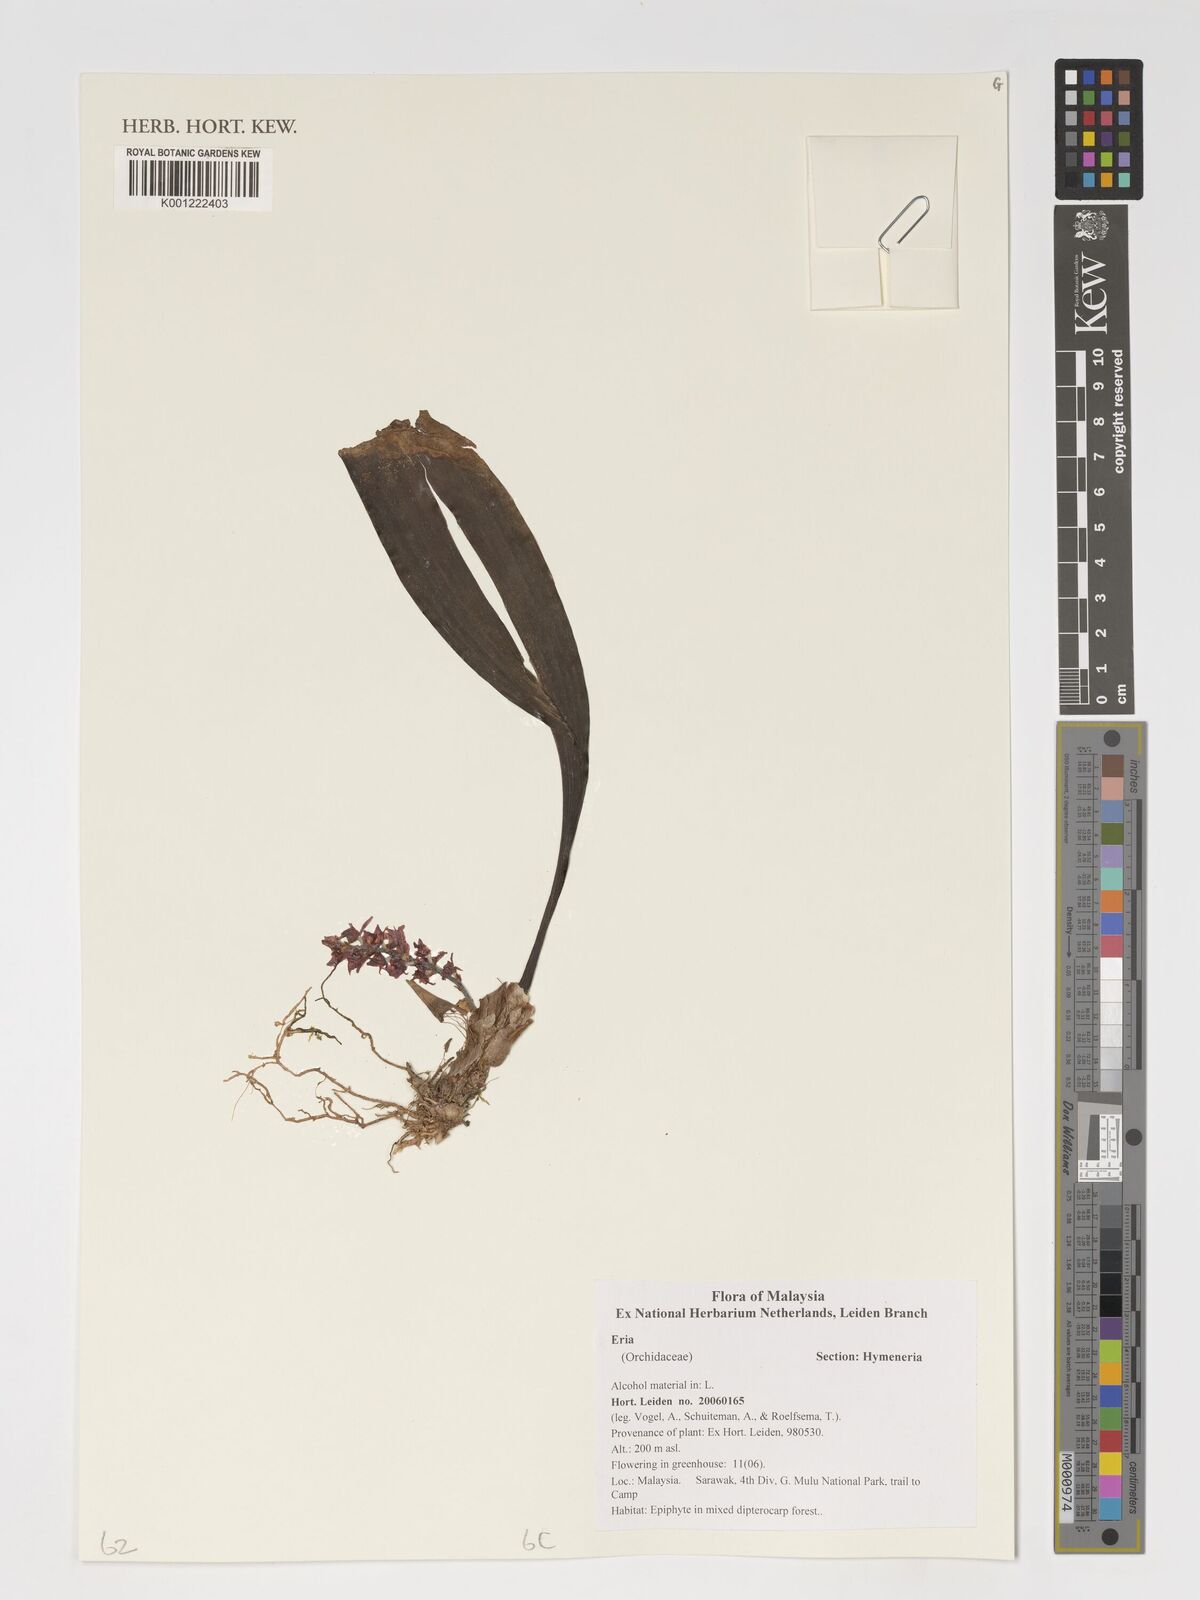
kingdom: Plantae
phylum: Tracheophyta
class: Liliopsida
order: Asparagales
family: Orchidaceae
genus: Eria
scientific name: Eria
